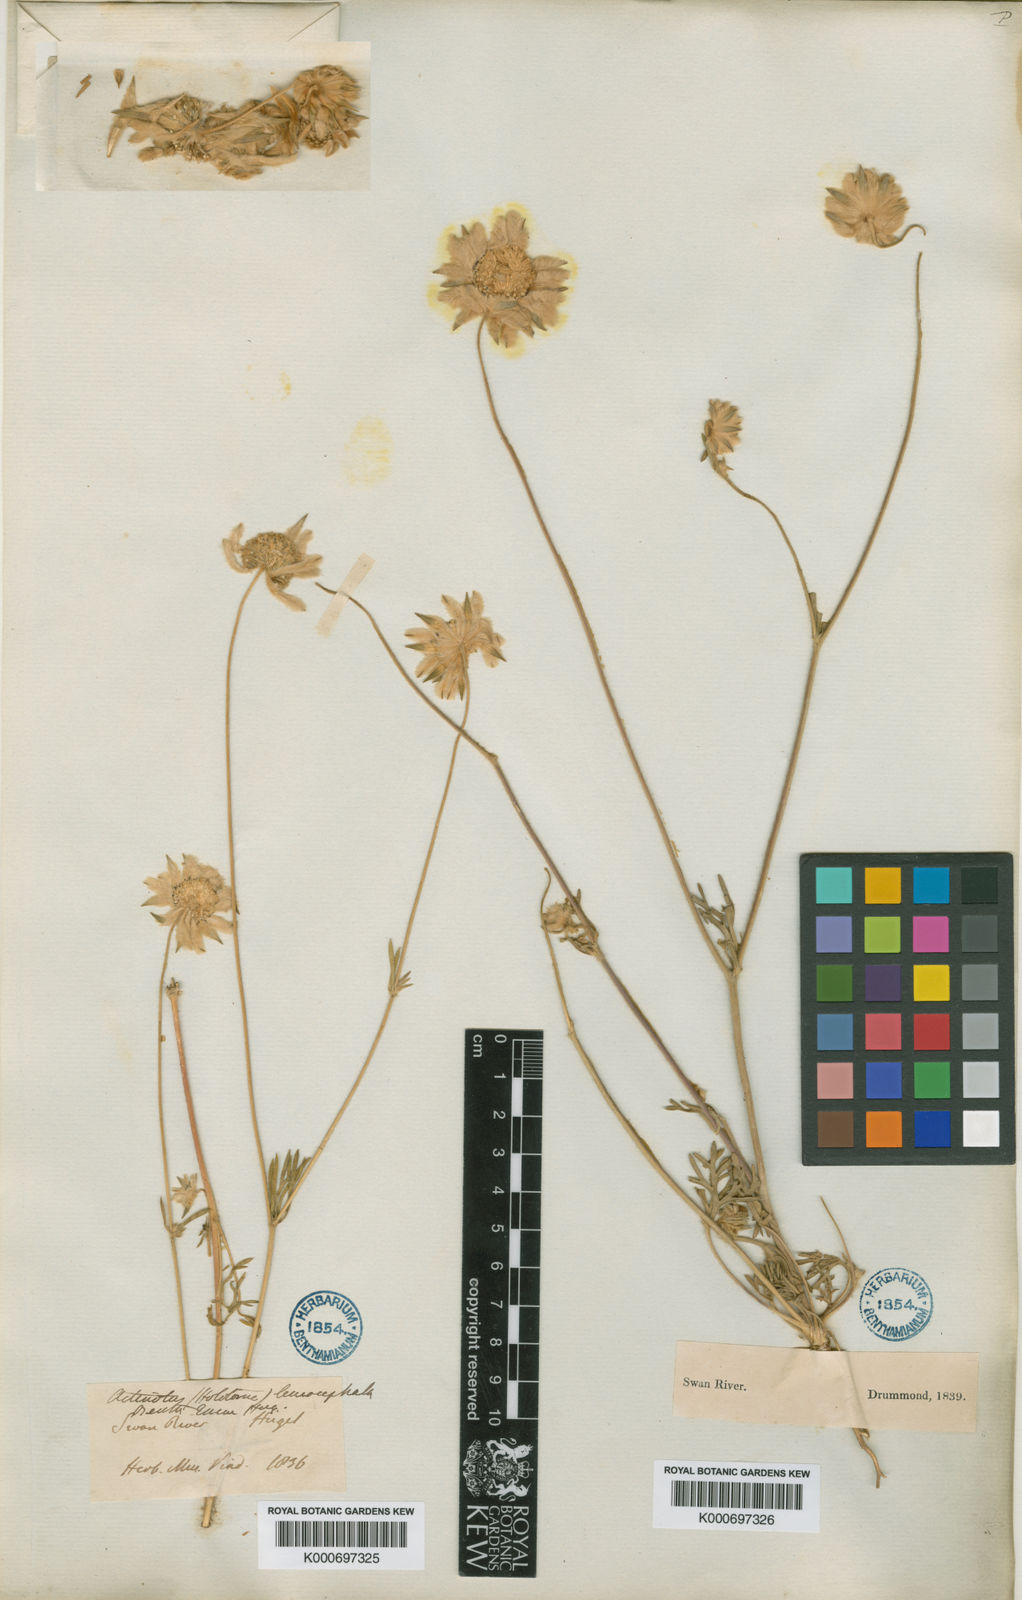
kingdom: Plantae
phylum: Tracheophyta
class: Magnoliopsida
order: Apiales
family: Apiaceae
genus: Actinotus
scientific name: Actinotus leucocephalus
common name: Flannel-flower
